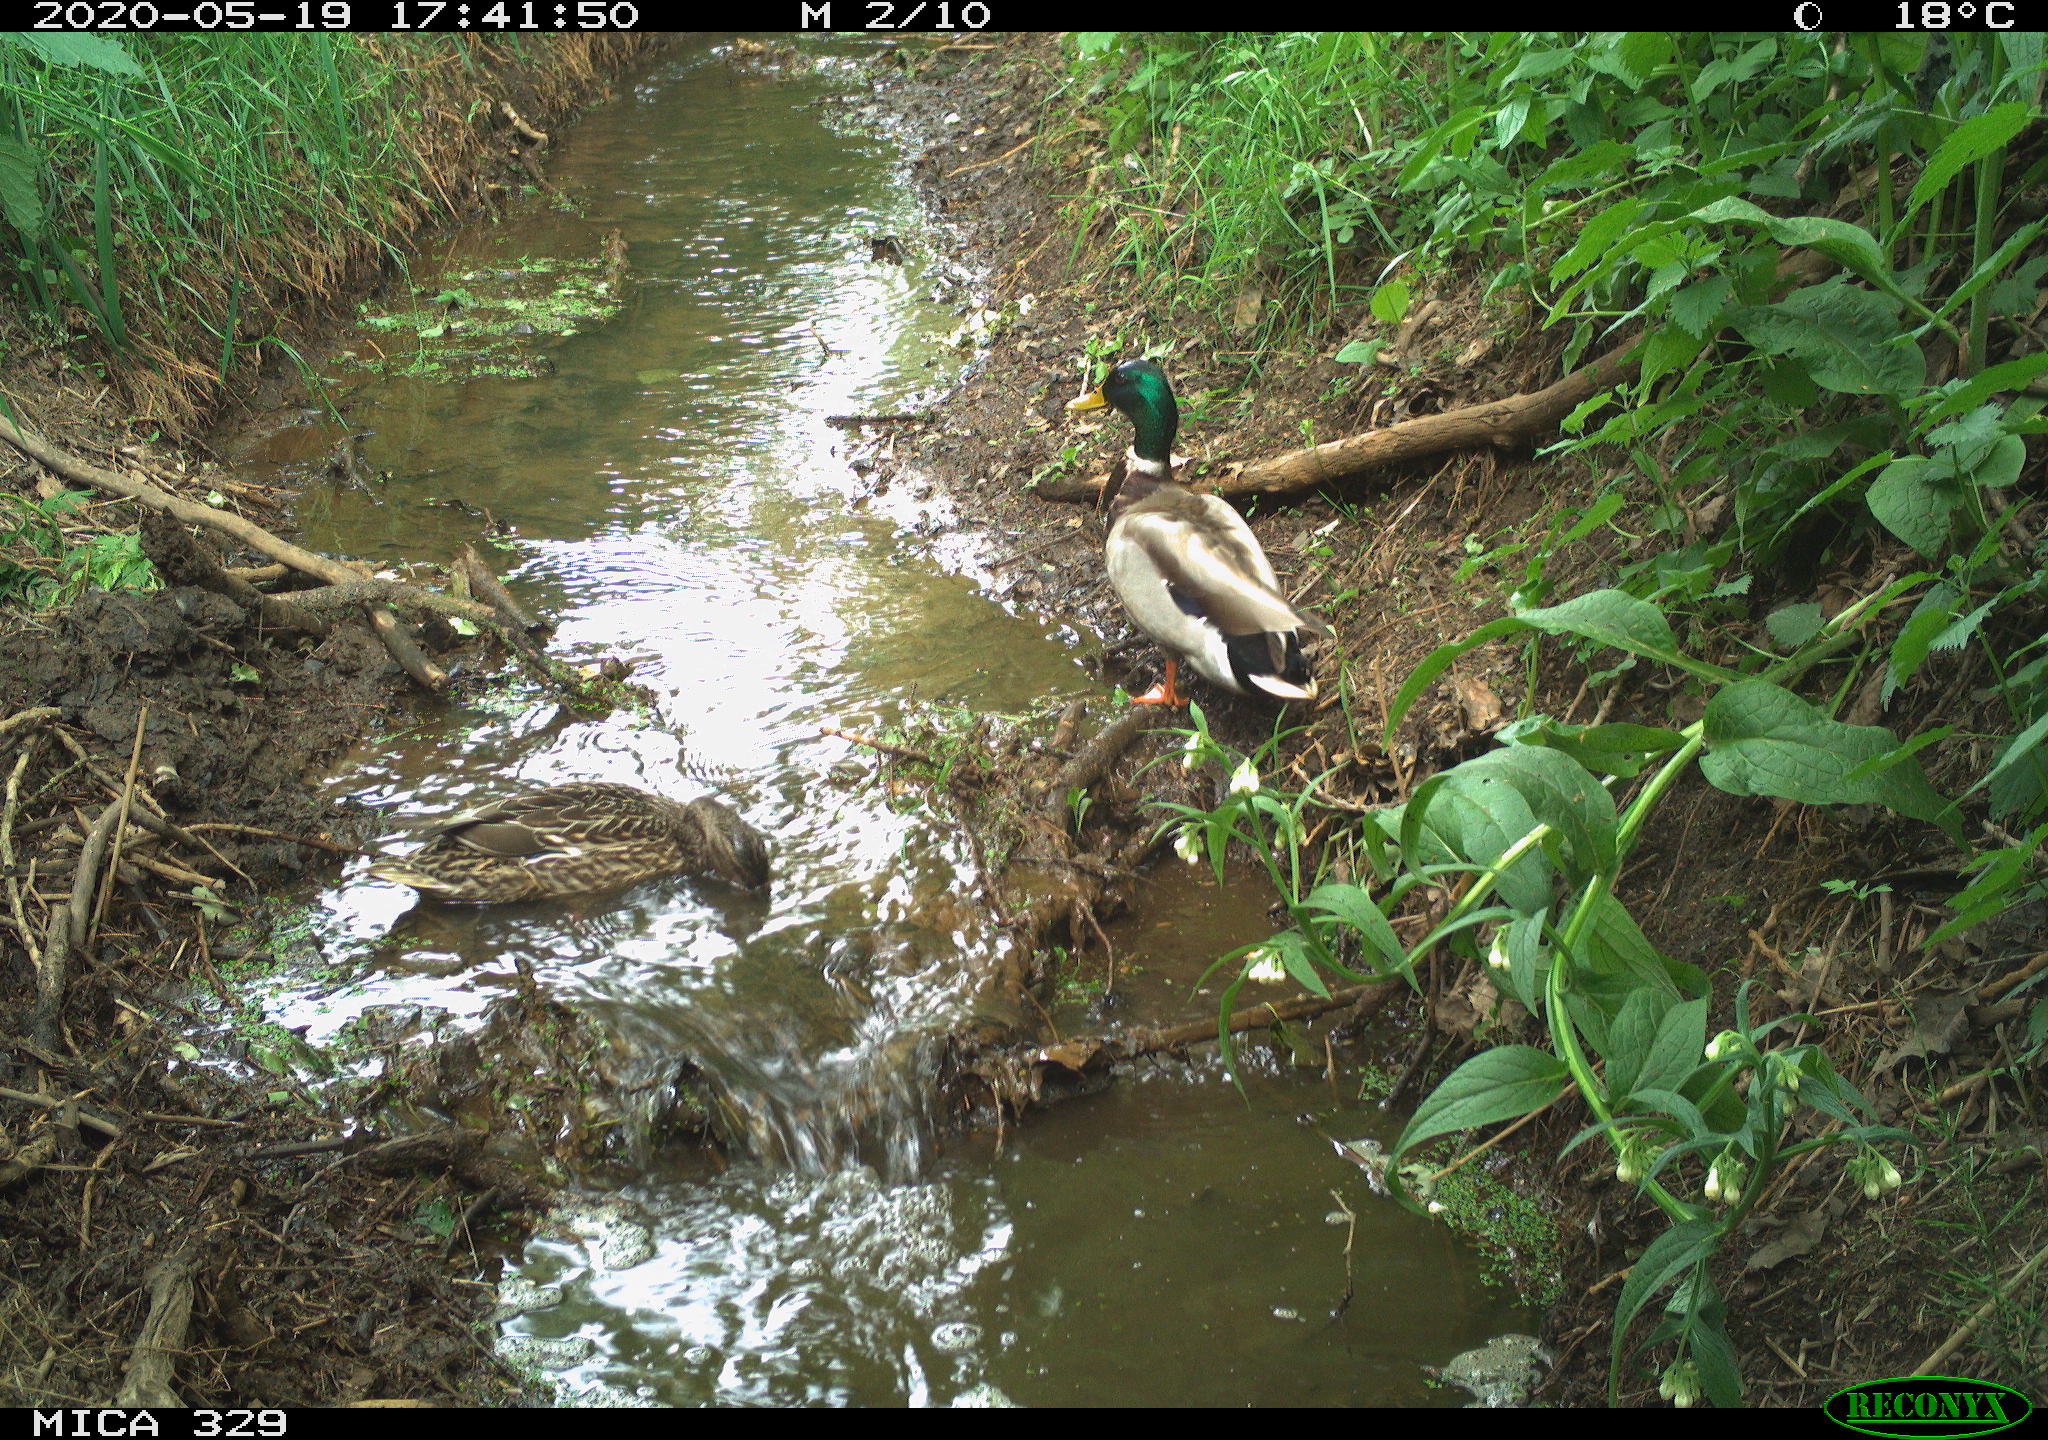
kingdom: Animalia
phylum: Chordata
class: Aves
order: Anseriformes
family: Anatidae
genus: Anas
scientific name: Anas platyrhynchos
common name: Mallard
